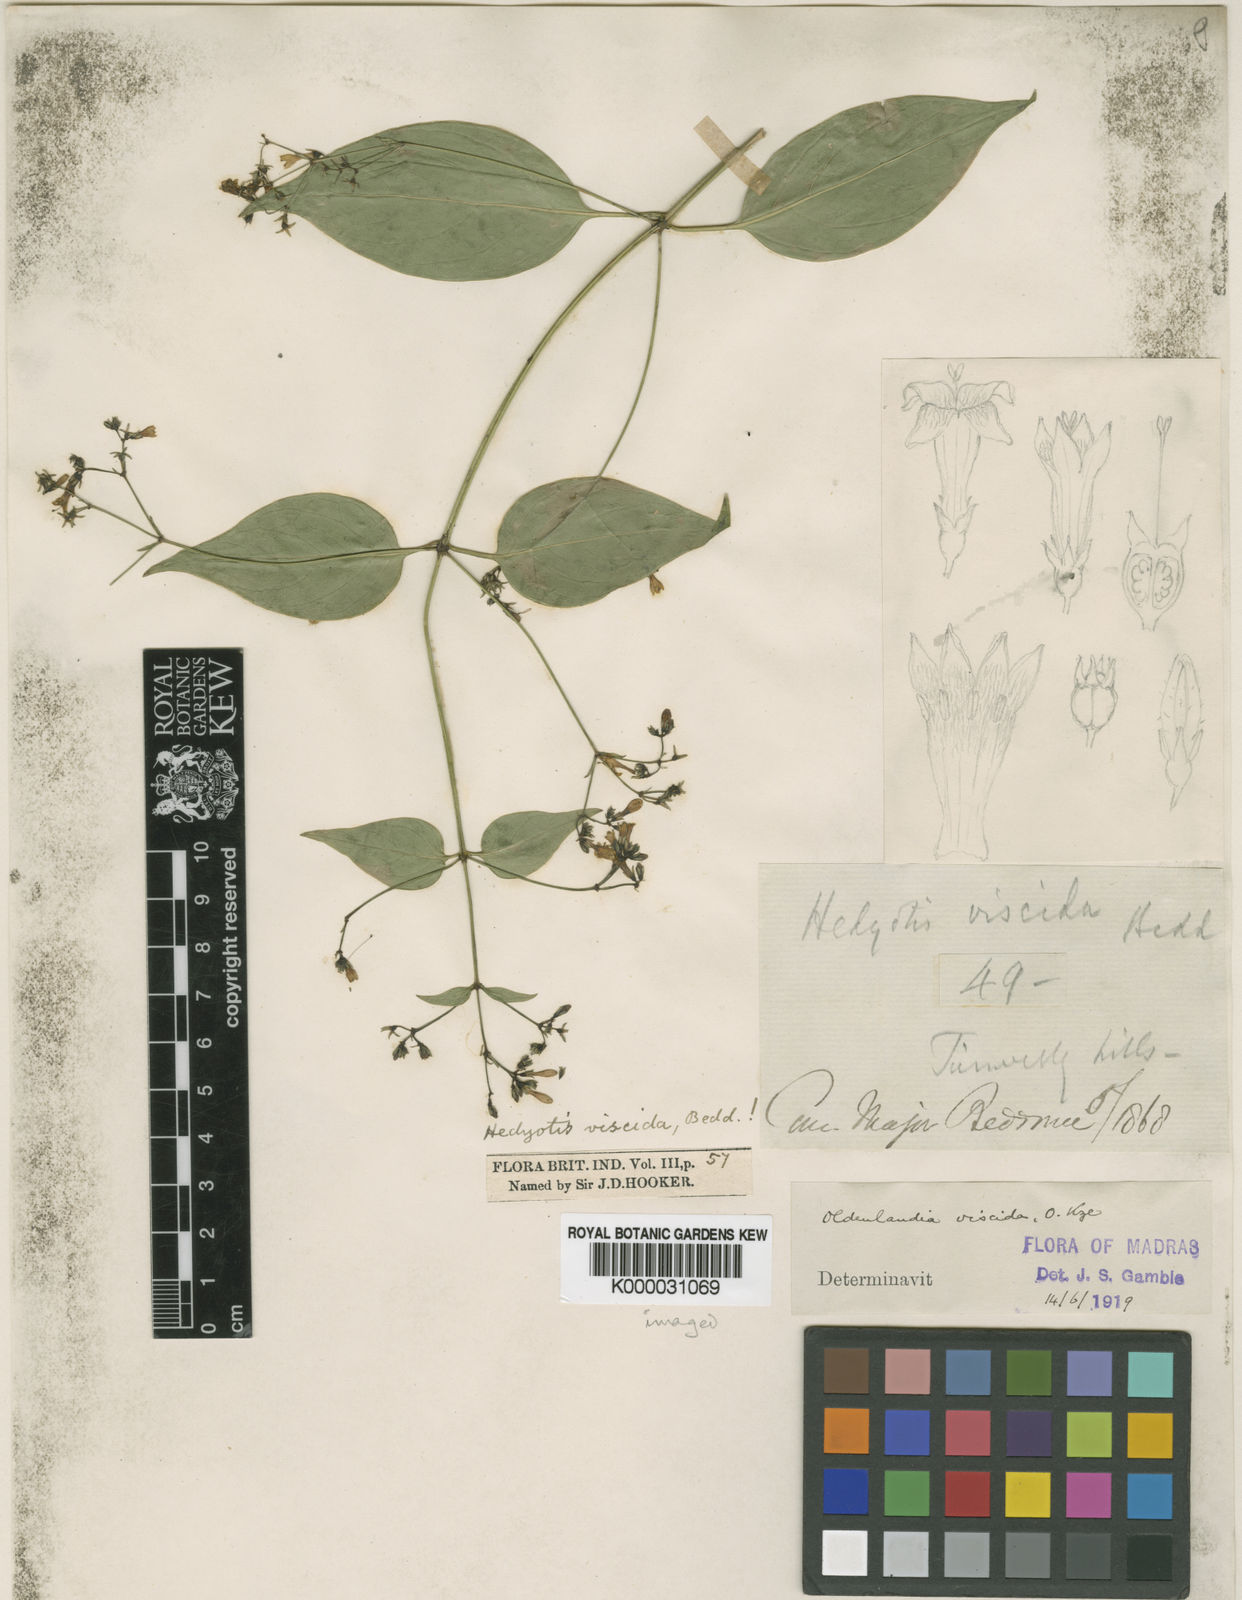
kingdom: Plantae
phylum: Tracheophyta
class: Magnoliopsida
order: Gentianales
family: Rubiaceae
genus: Oldenlandia
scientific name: Oldenlandia viscida
